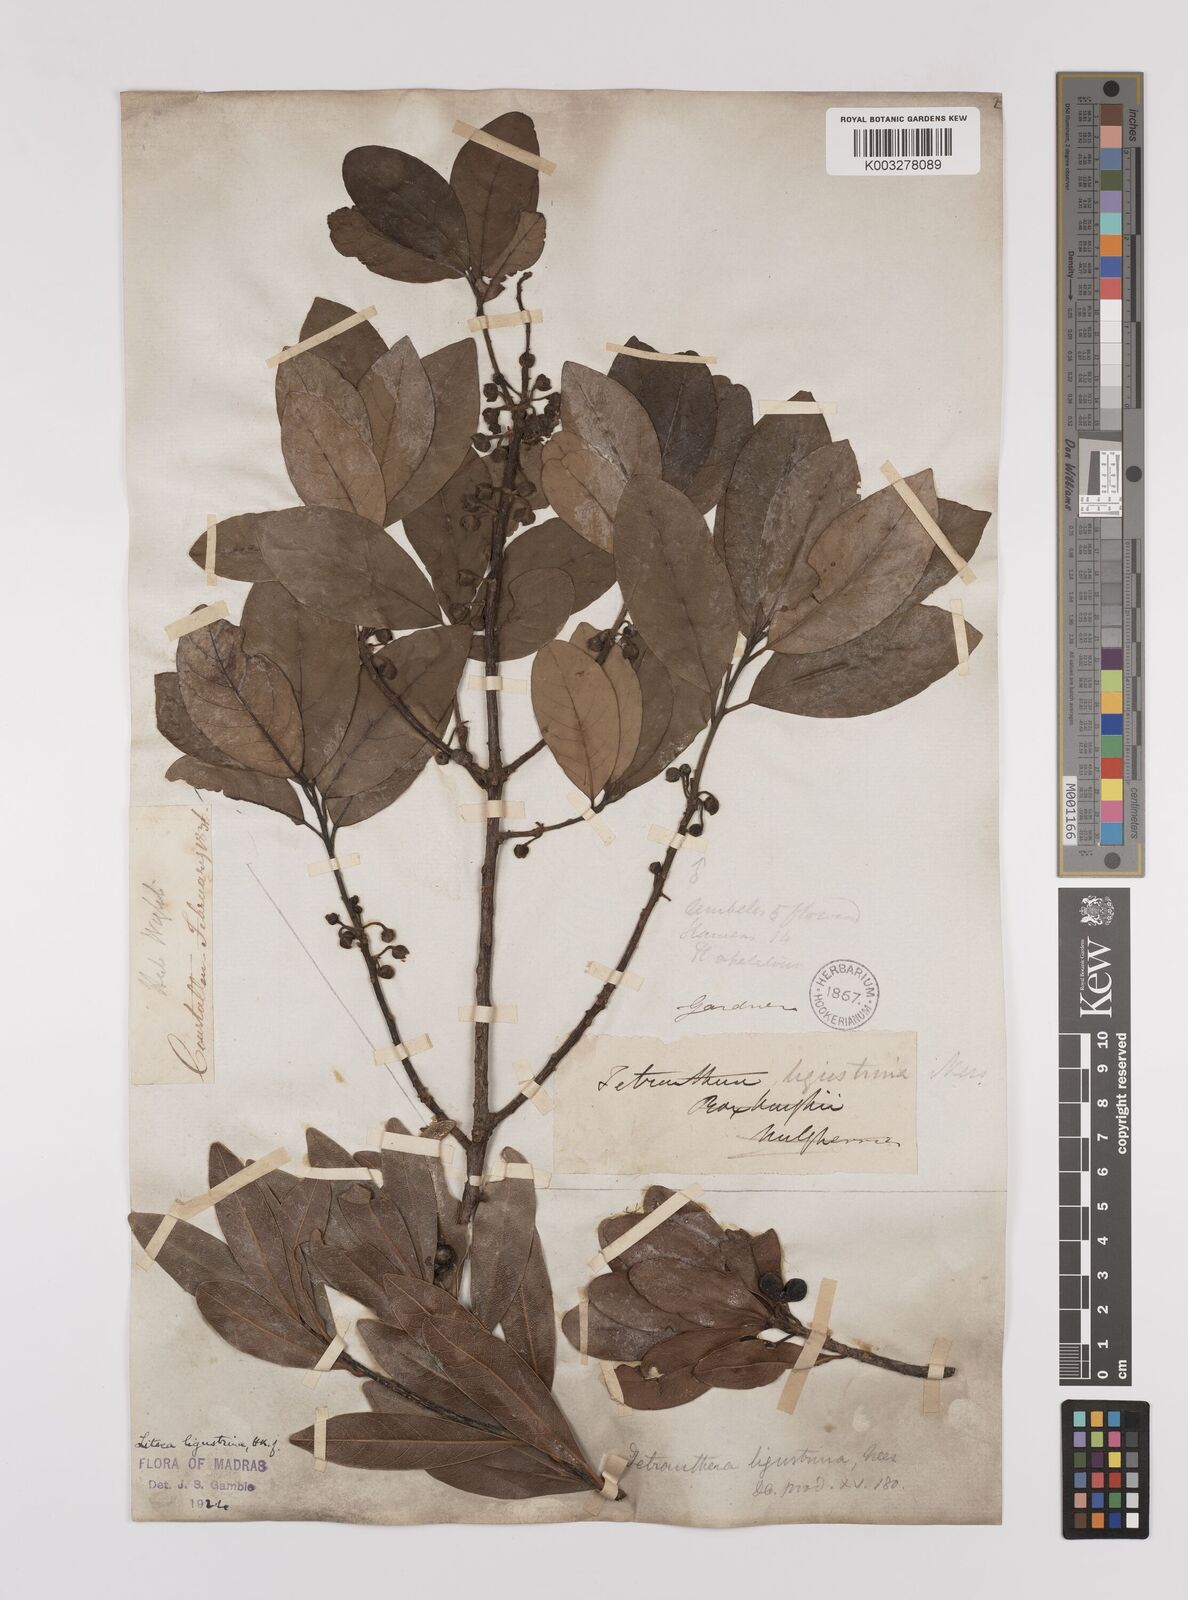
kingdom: Plantae
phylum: Tracheophyta
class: Magnoliopsida
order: Laurales
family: Lauraceae
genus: Litsea
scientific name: Litsea ligustrina
